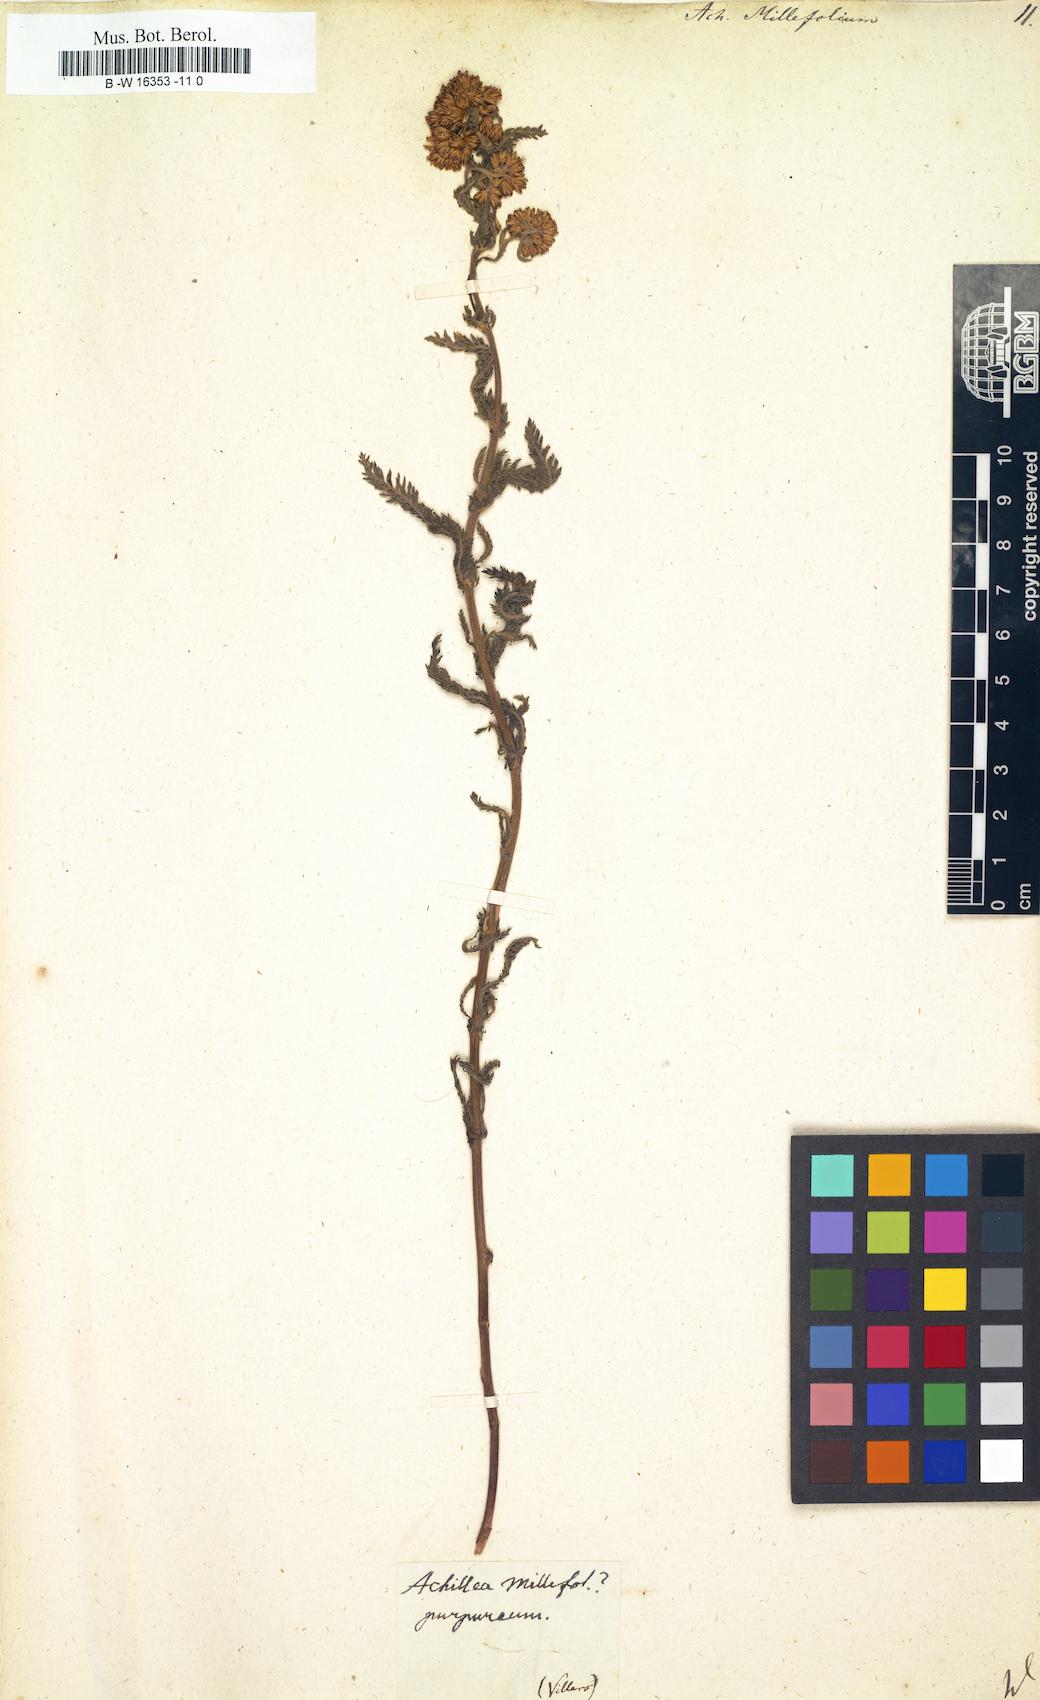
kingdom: Plantae
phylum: Tracheophyta
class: Magnoliopsida
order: Asterales
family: Asteraceae
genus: Achillea
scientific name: Achillea millefolium
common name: Yarrow
